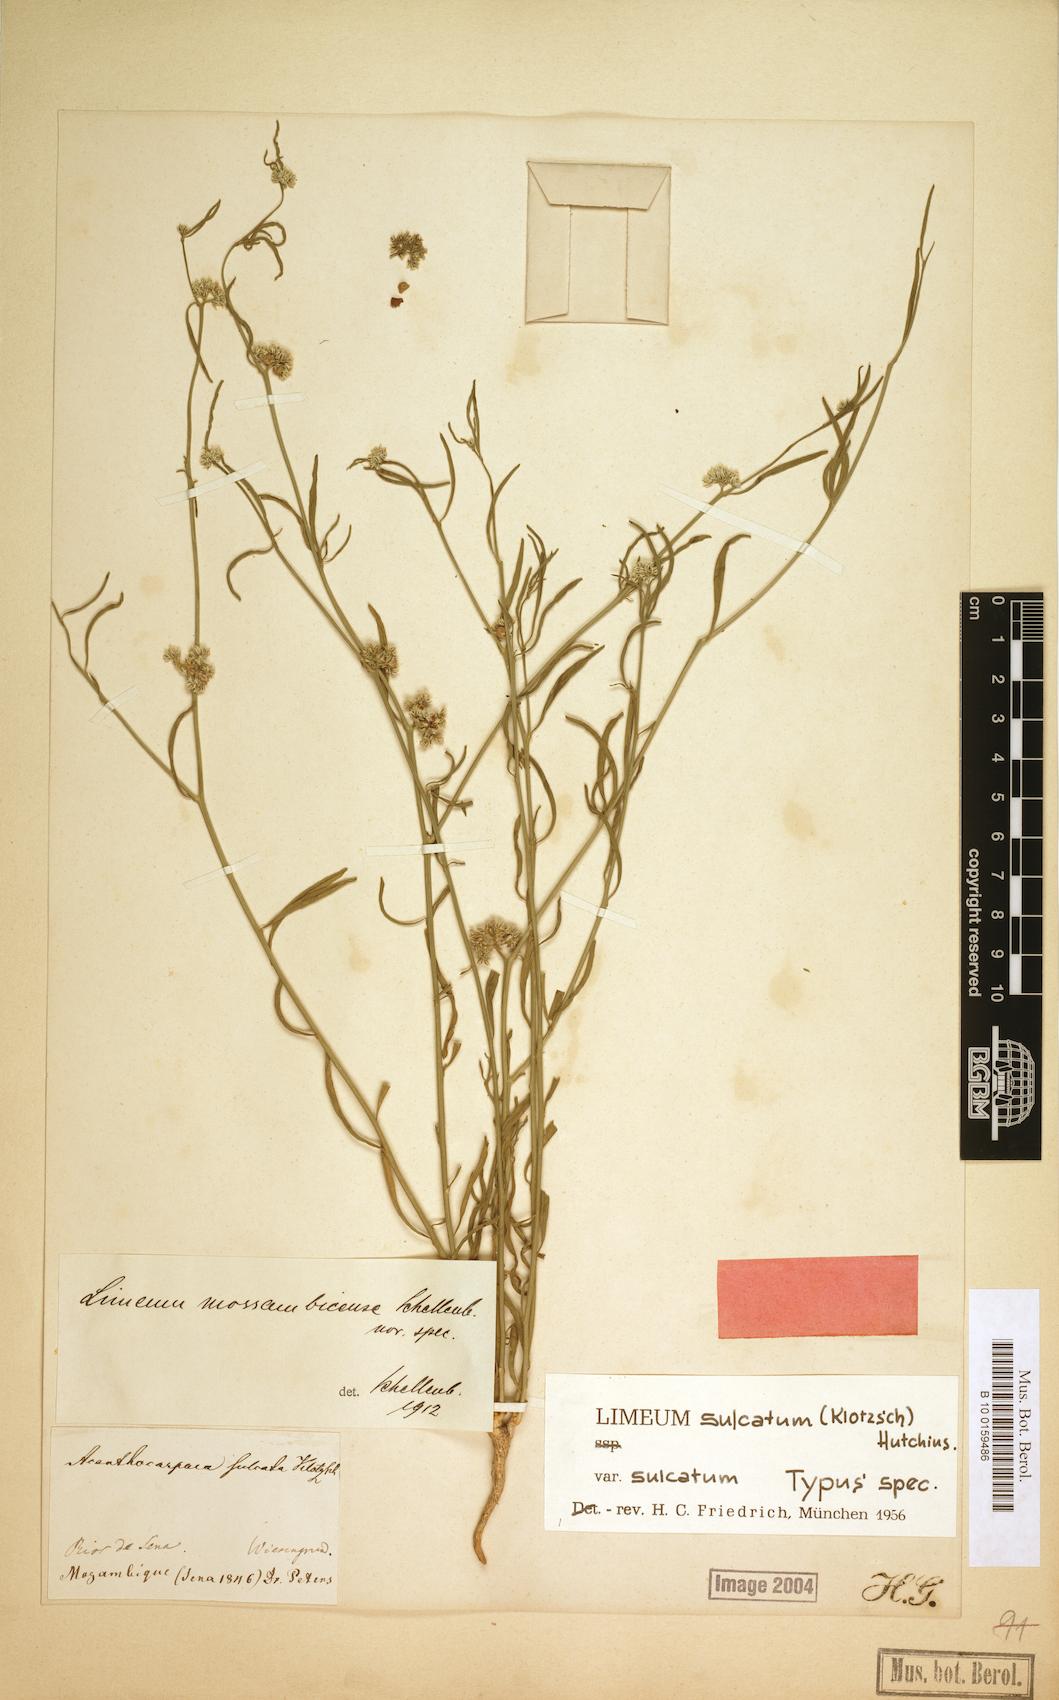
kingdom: Plantae
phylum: Tracheophyta
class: Magnoliopsida
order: Caryophyllales
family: Limeaceae
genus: Limeum
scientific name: Limeum sulcatum
